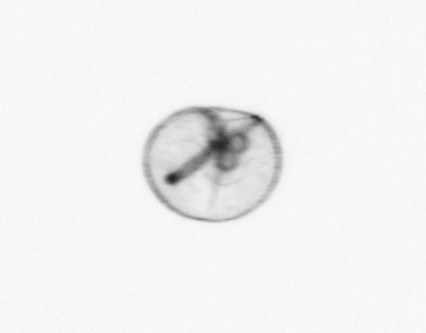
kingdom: Chromista
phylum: Myzozoa
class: Dinophyceae
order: Noctilucales
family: Noctilucaceae
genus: Noctiluca
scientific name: Noctiluca scintillans
